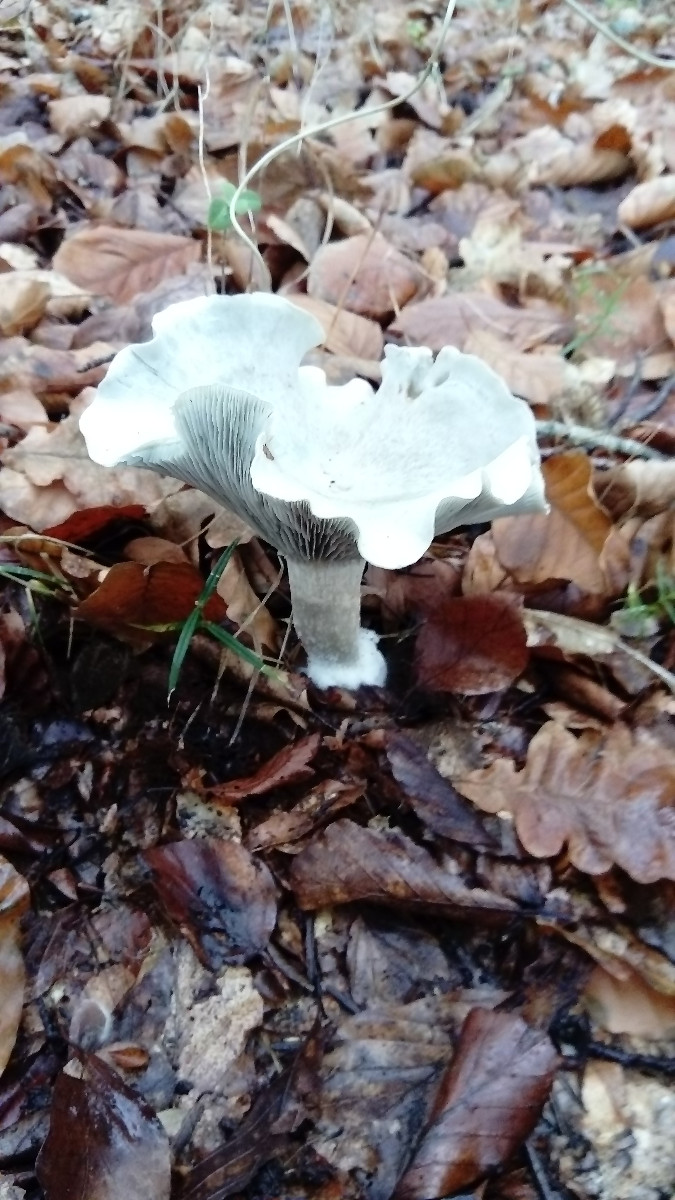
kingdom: Fungi
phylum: Basidiomycota
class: Agaricomycetes
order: Agaricales
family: Tricholomataceae
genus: Clitocybe
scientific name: Clitocybe odora
